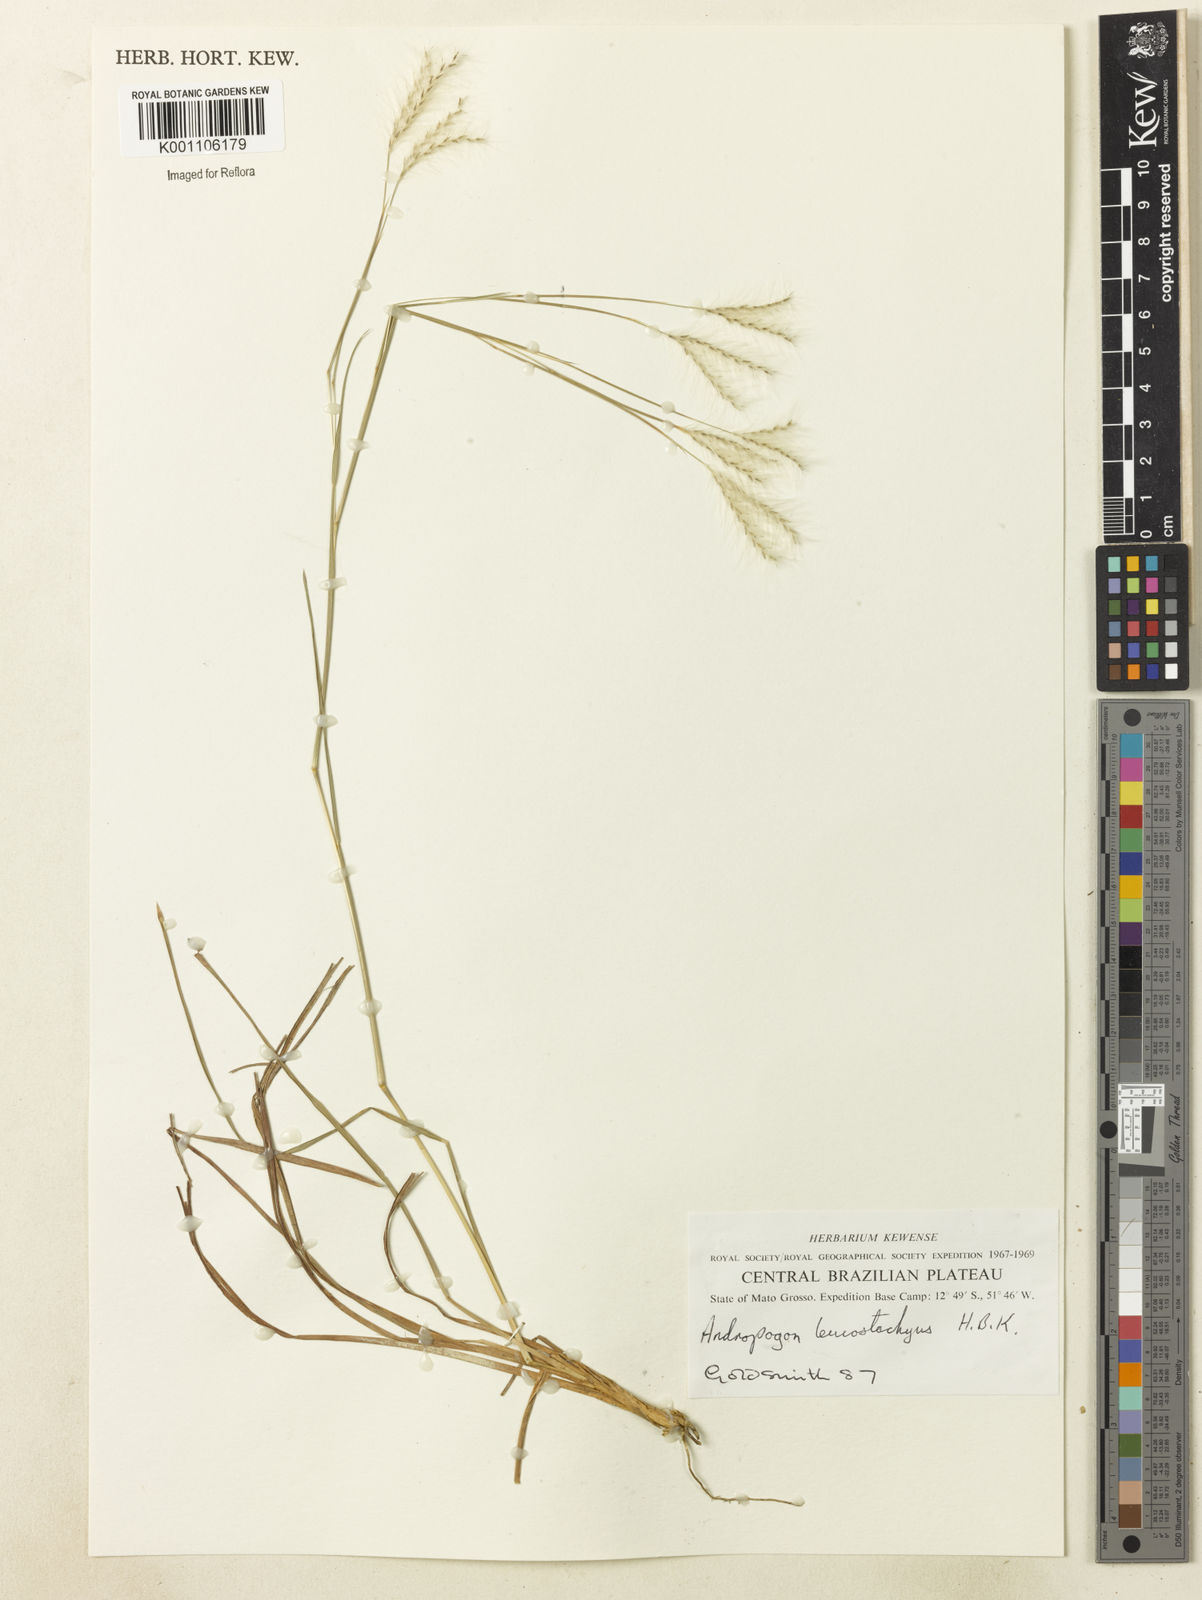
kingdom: Plantae
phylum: Tracheophyta
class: Liliopsida
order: Poales
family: Poaceae
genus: Andropogon
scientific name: Andropogon leucostachyus
